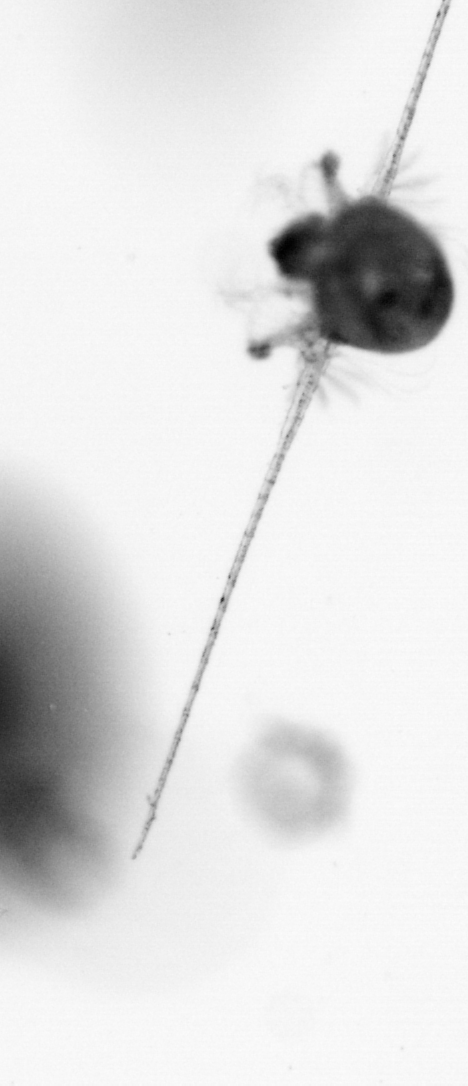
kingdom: Animalia
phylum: Arthropoda
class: Copepoda
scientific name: Copepoda
